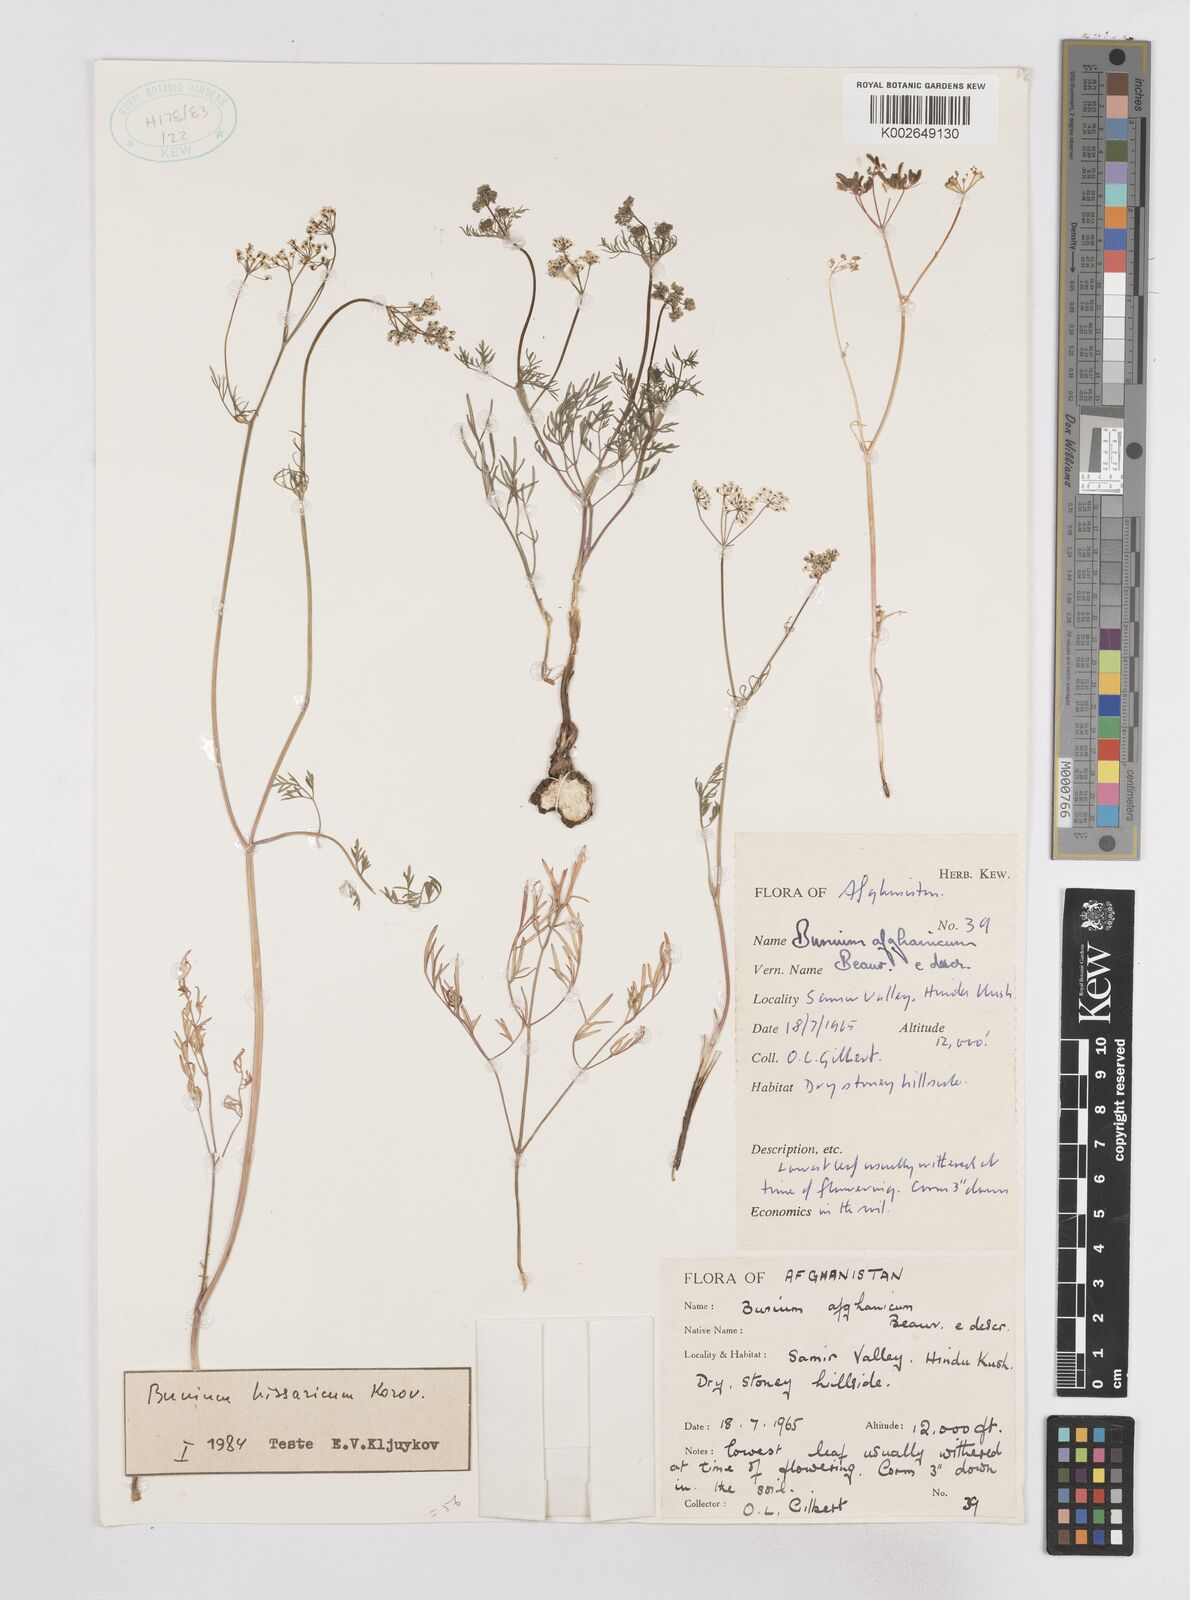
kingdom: Plantae
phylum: Tracheophyta
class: Magnoliopsida
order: Apiales
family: Apiaceae
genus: Elwendia
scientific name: Elwendia hissarica
